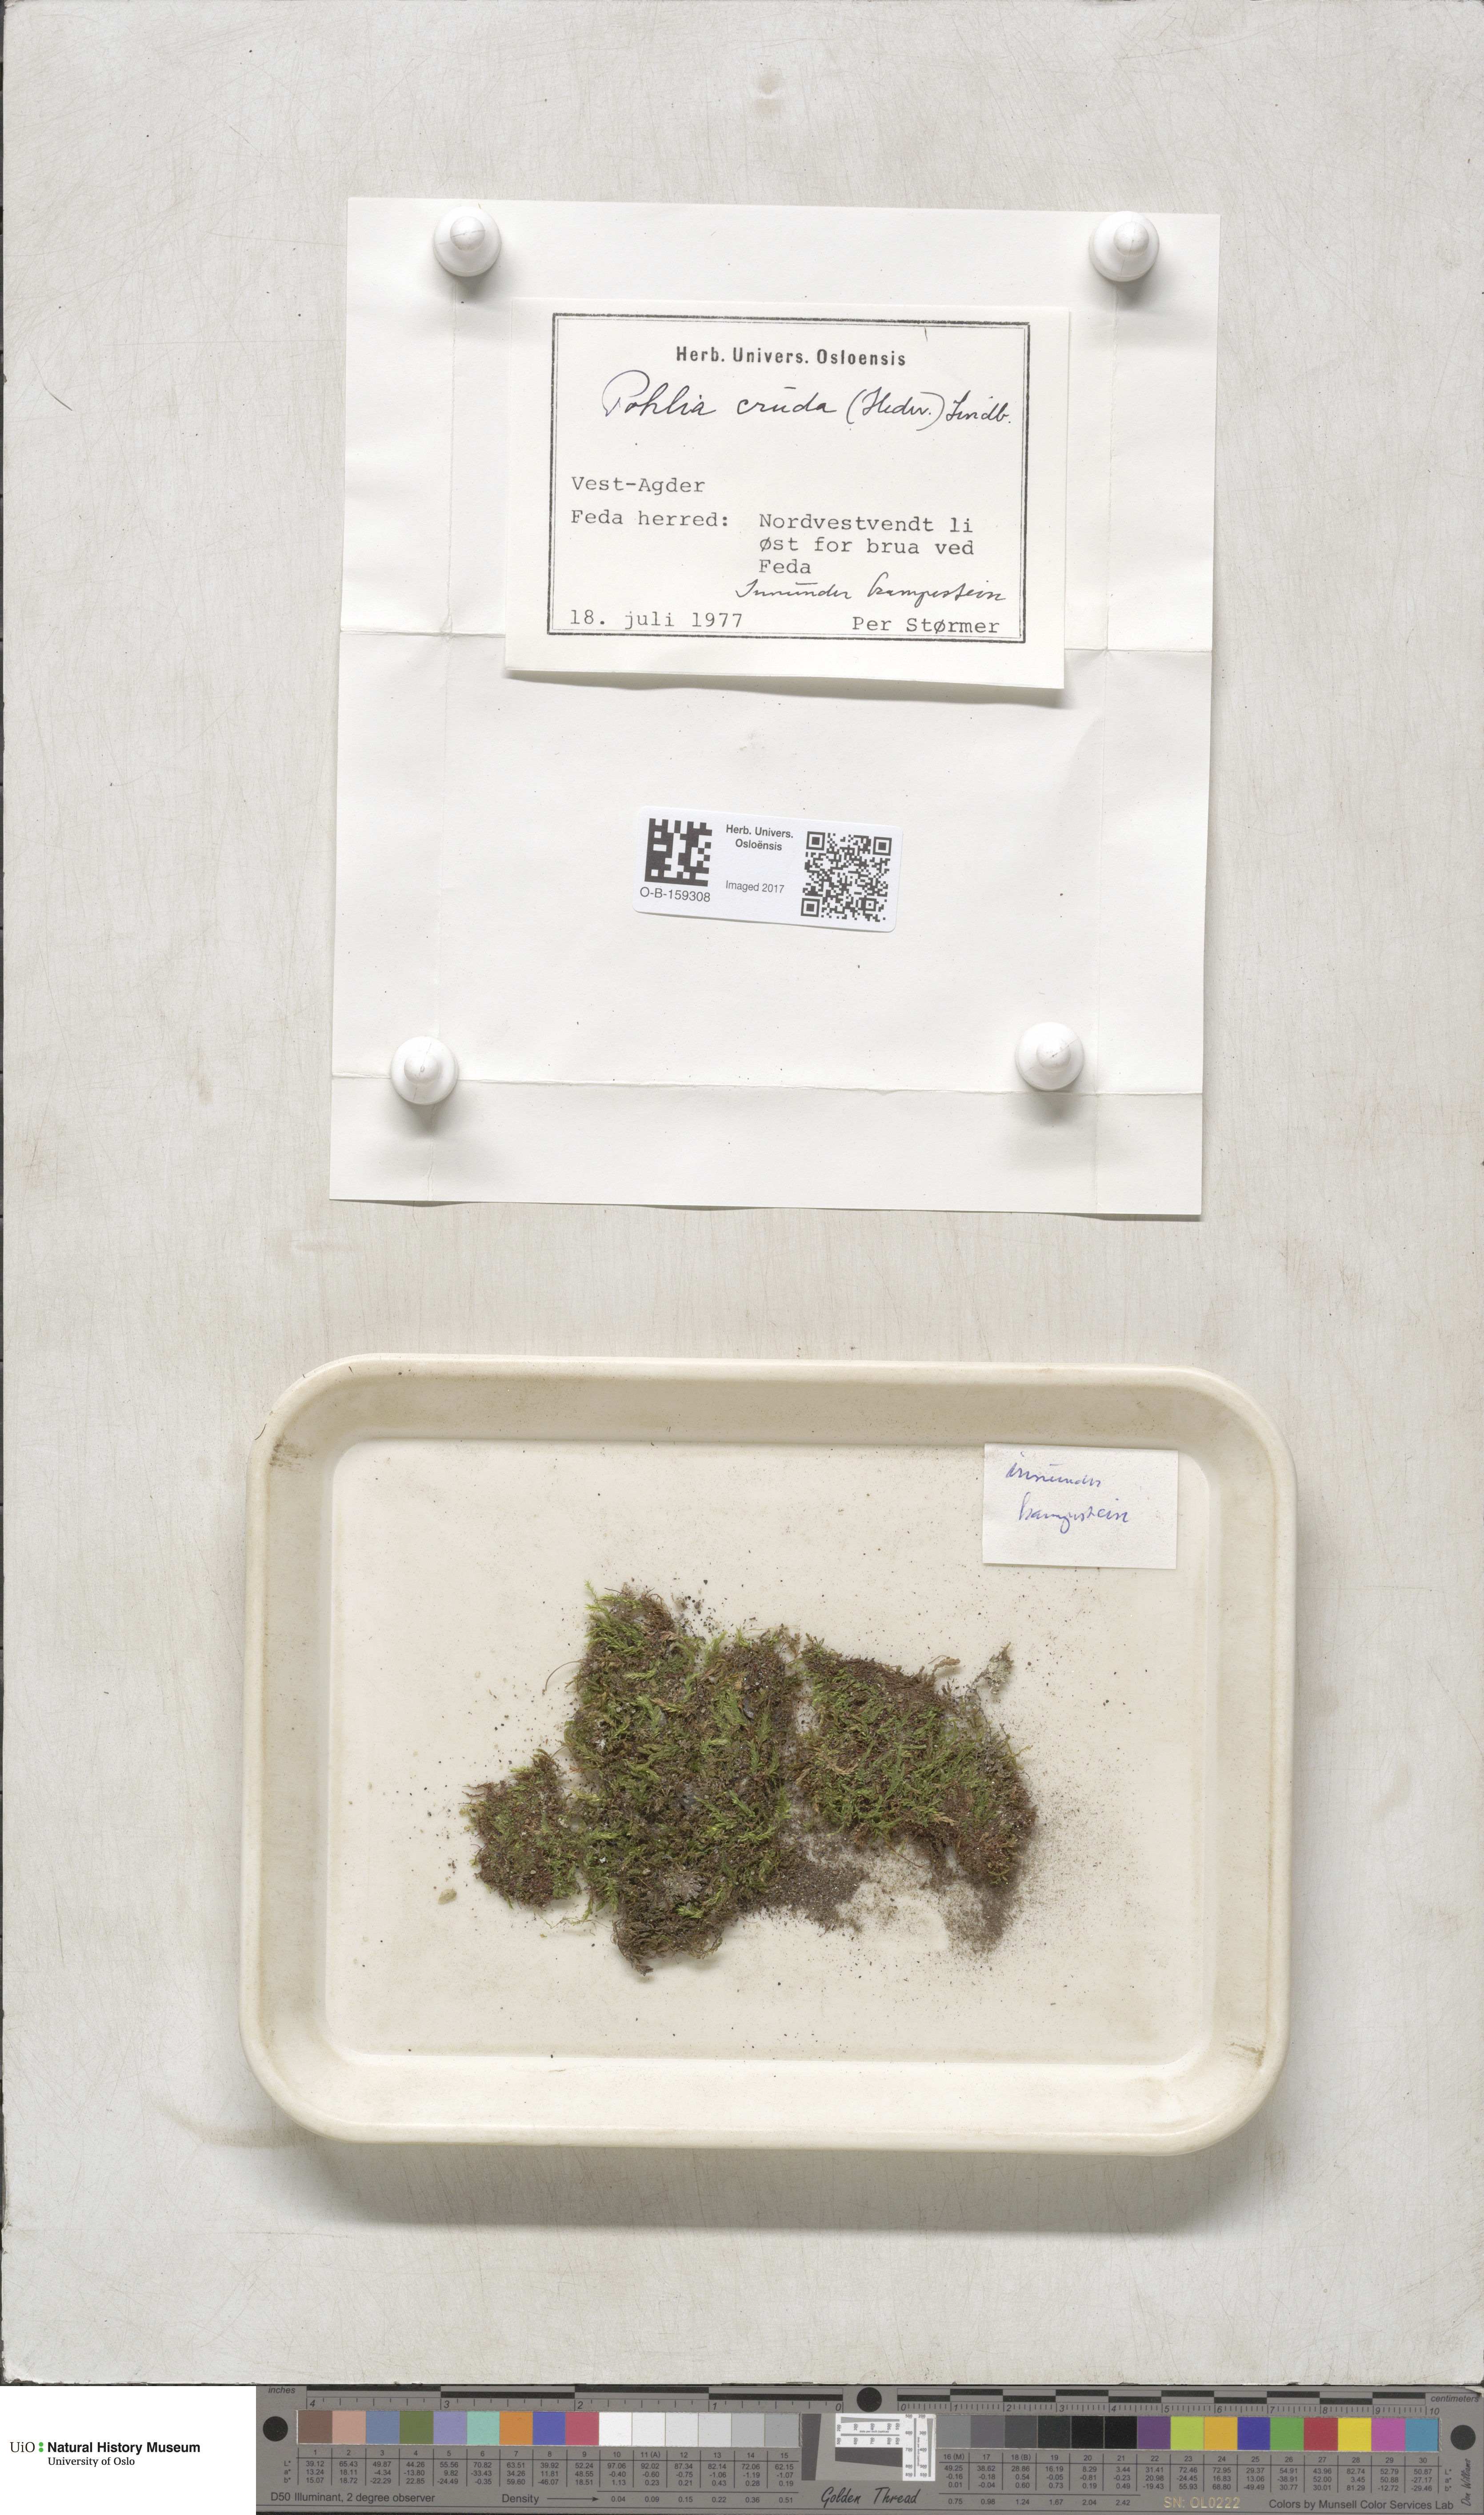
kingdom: Plantae
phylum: Bryophyta
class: Bryopsida
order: Bryales
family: Mniaceae
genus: Pohlia
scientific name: Pohlia cruda
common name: Opal nodding moss
